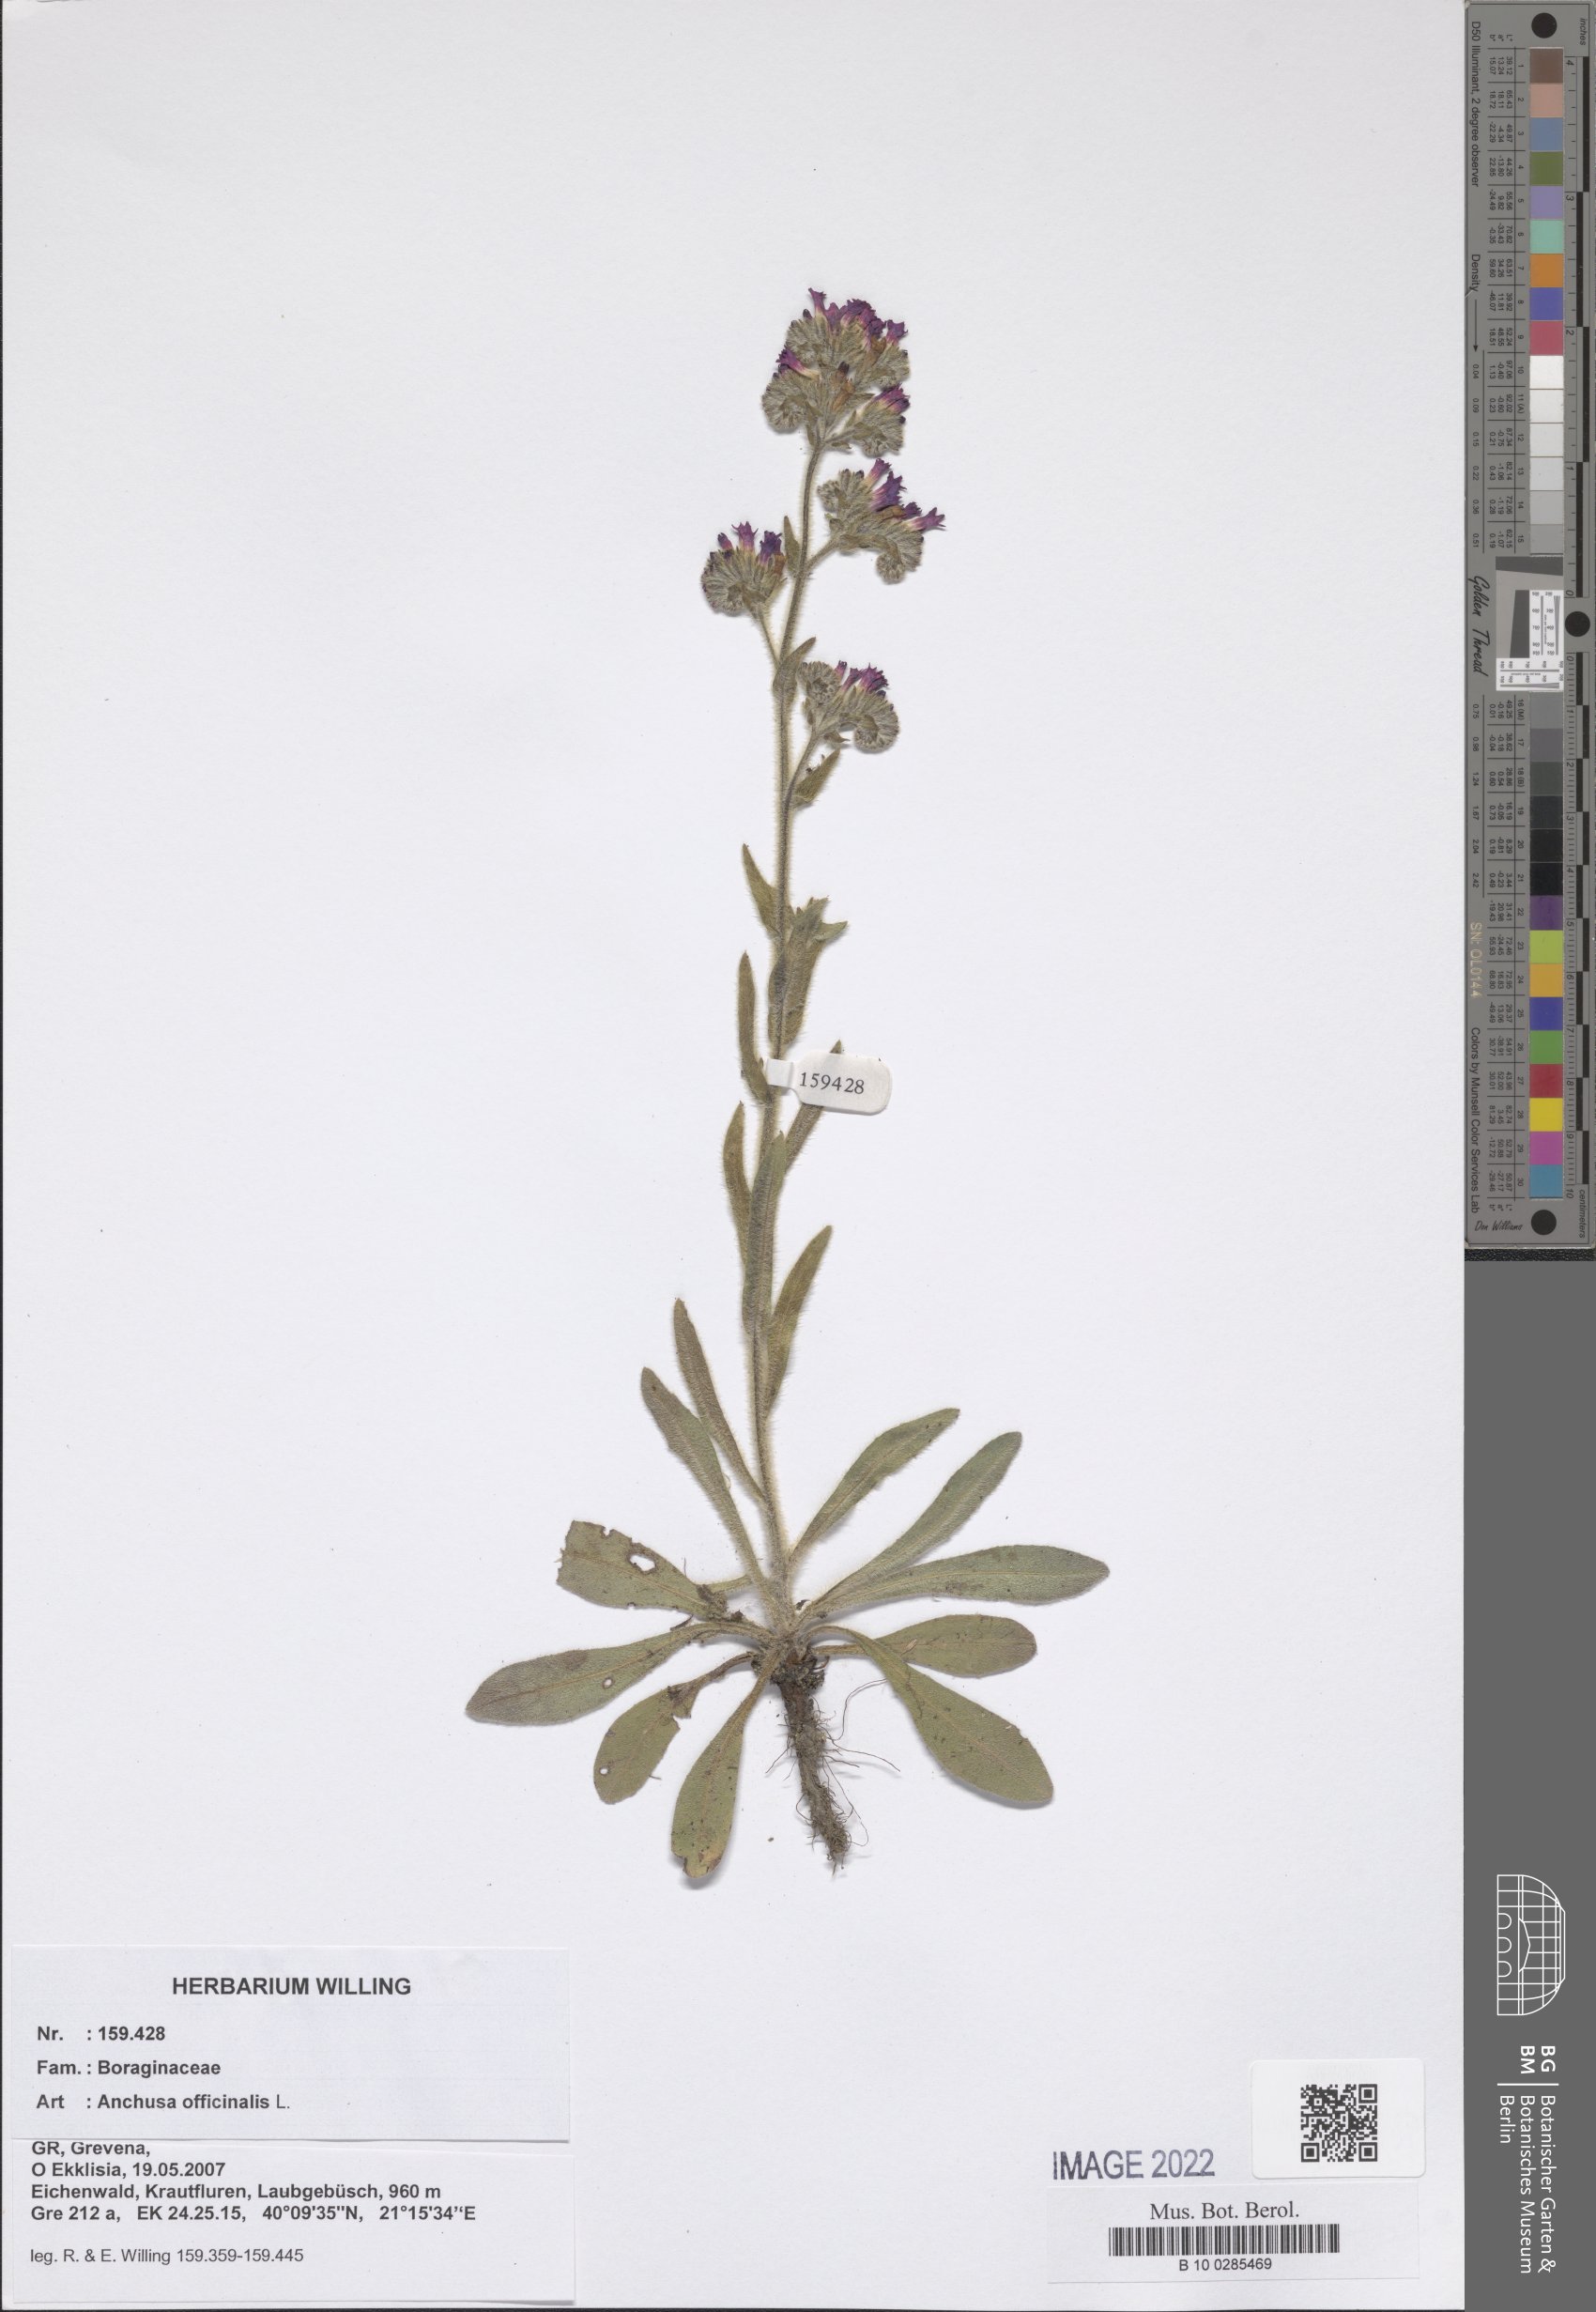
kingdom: Plantae
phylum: Tracheophyta
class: Magnoliopsida
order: Boraginales
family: Boraginaceae
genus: Anchusa
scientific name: Anchusa officinalis
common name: Alkanet
